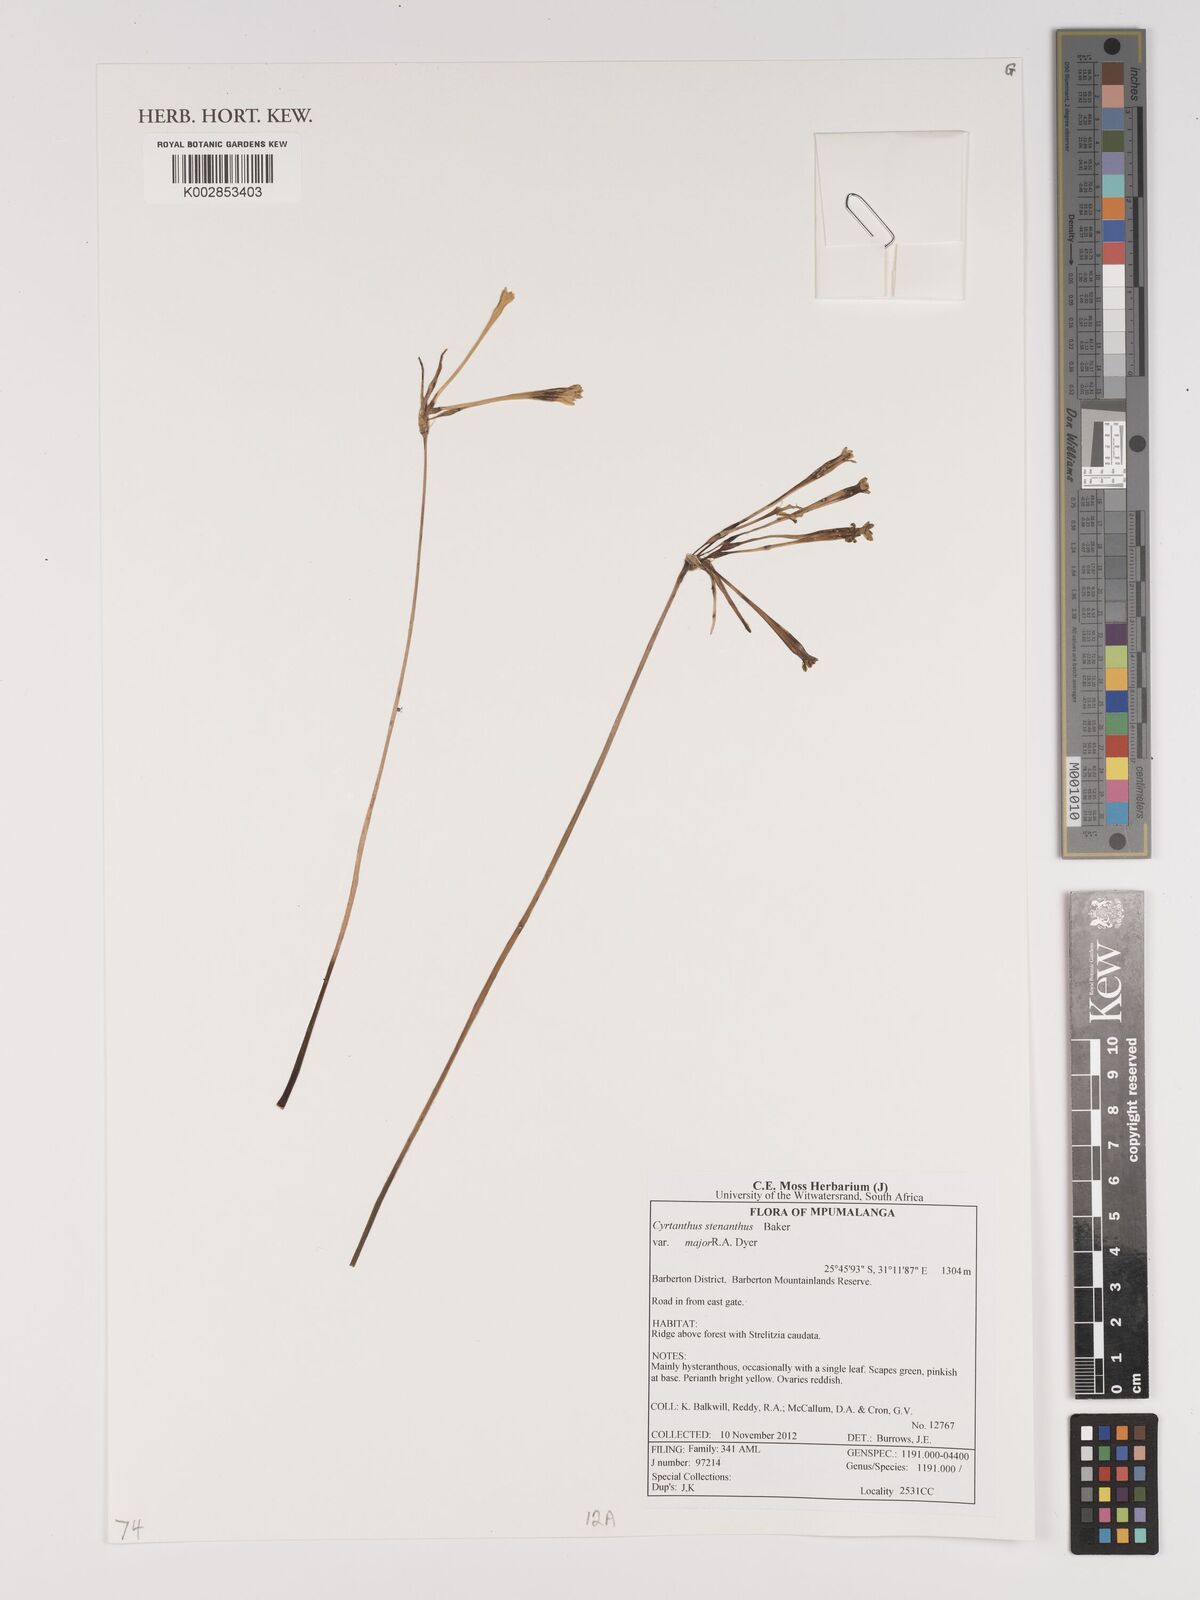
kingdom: Plantae
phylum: Tracheophyta
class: Liliopsida
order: Asparagales
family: Amaryllidaceae
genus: Cyrtanthus
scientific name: Cyrtanthus stenanthus
